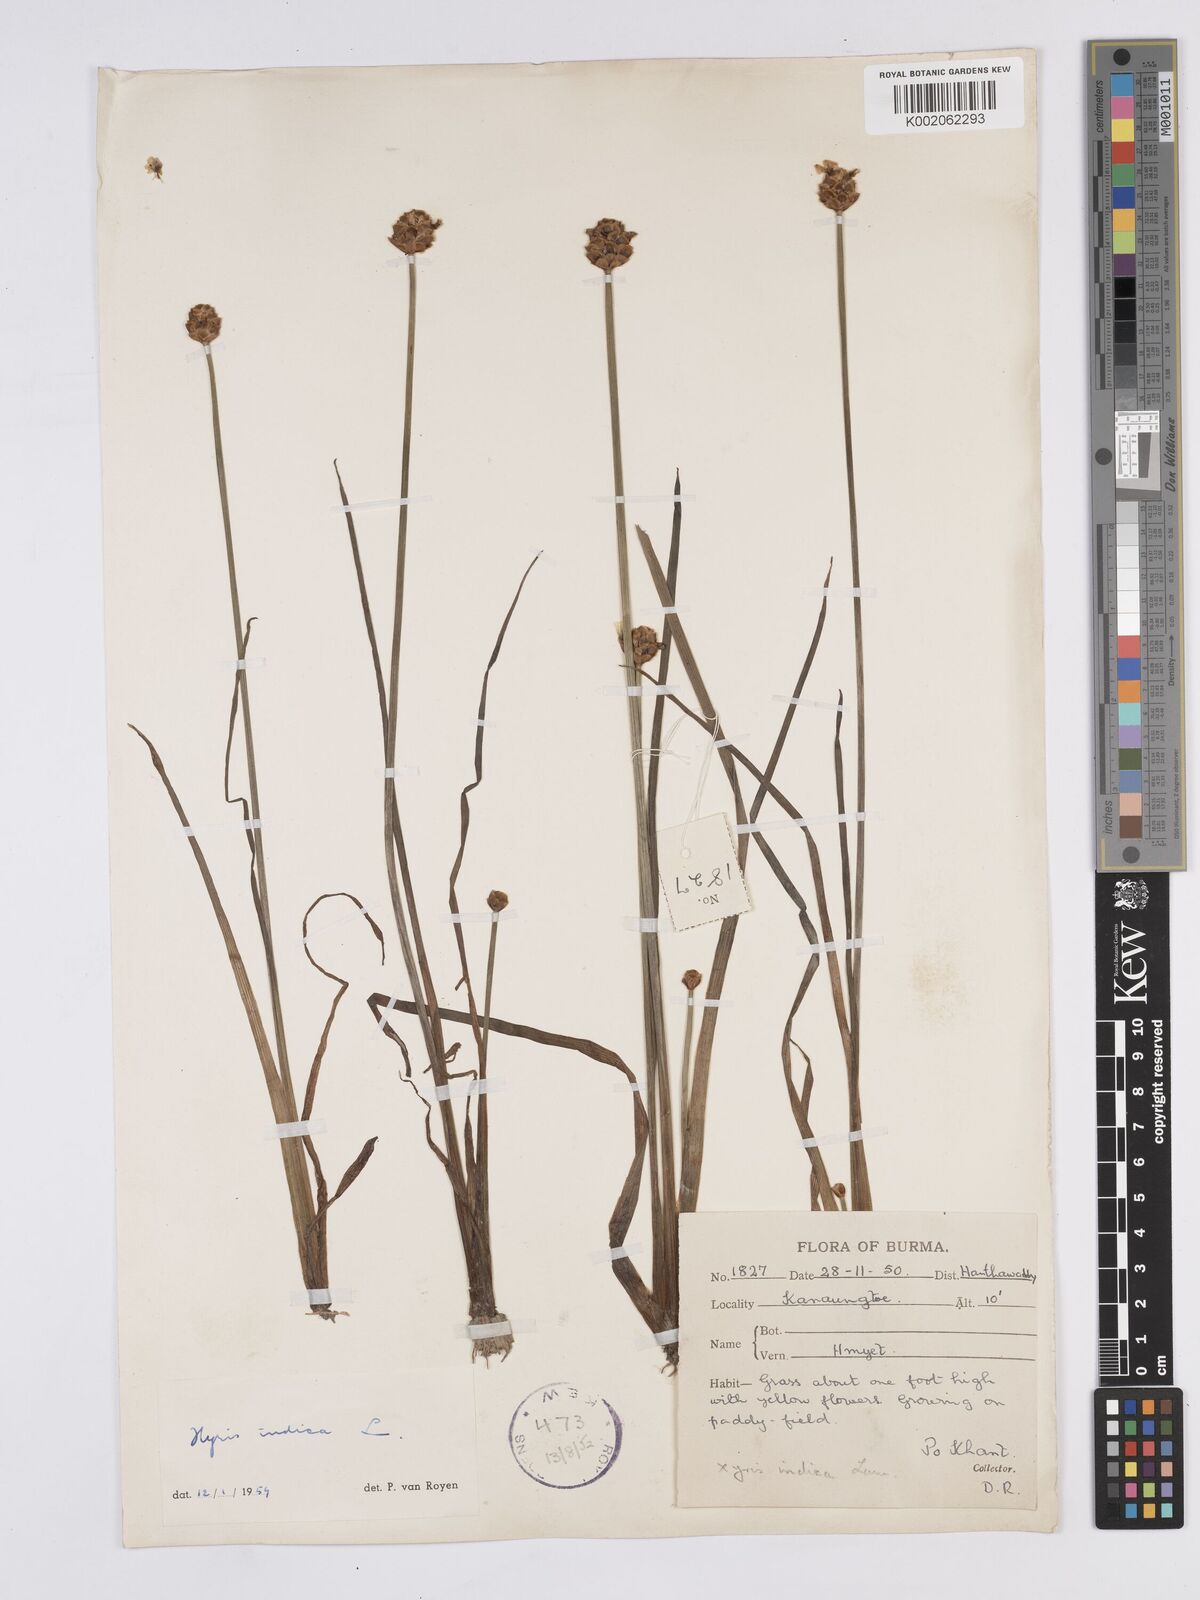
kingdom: Plantae
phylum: Tracheophyta
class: Liliopsida
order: Poales
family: Xyridaceae
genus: Xyris
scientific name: Xyris indica
